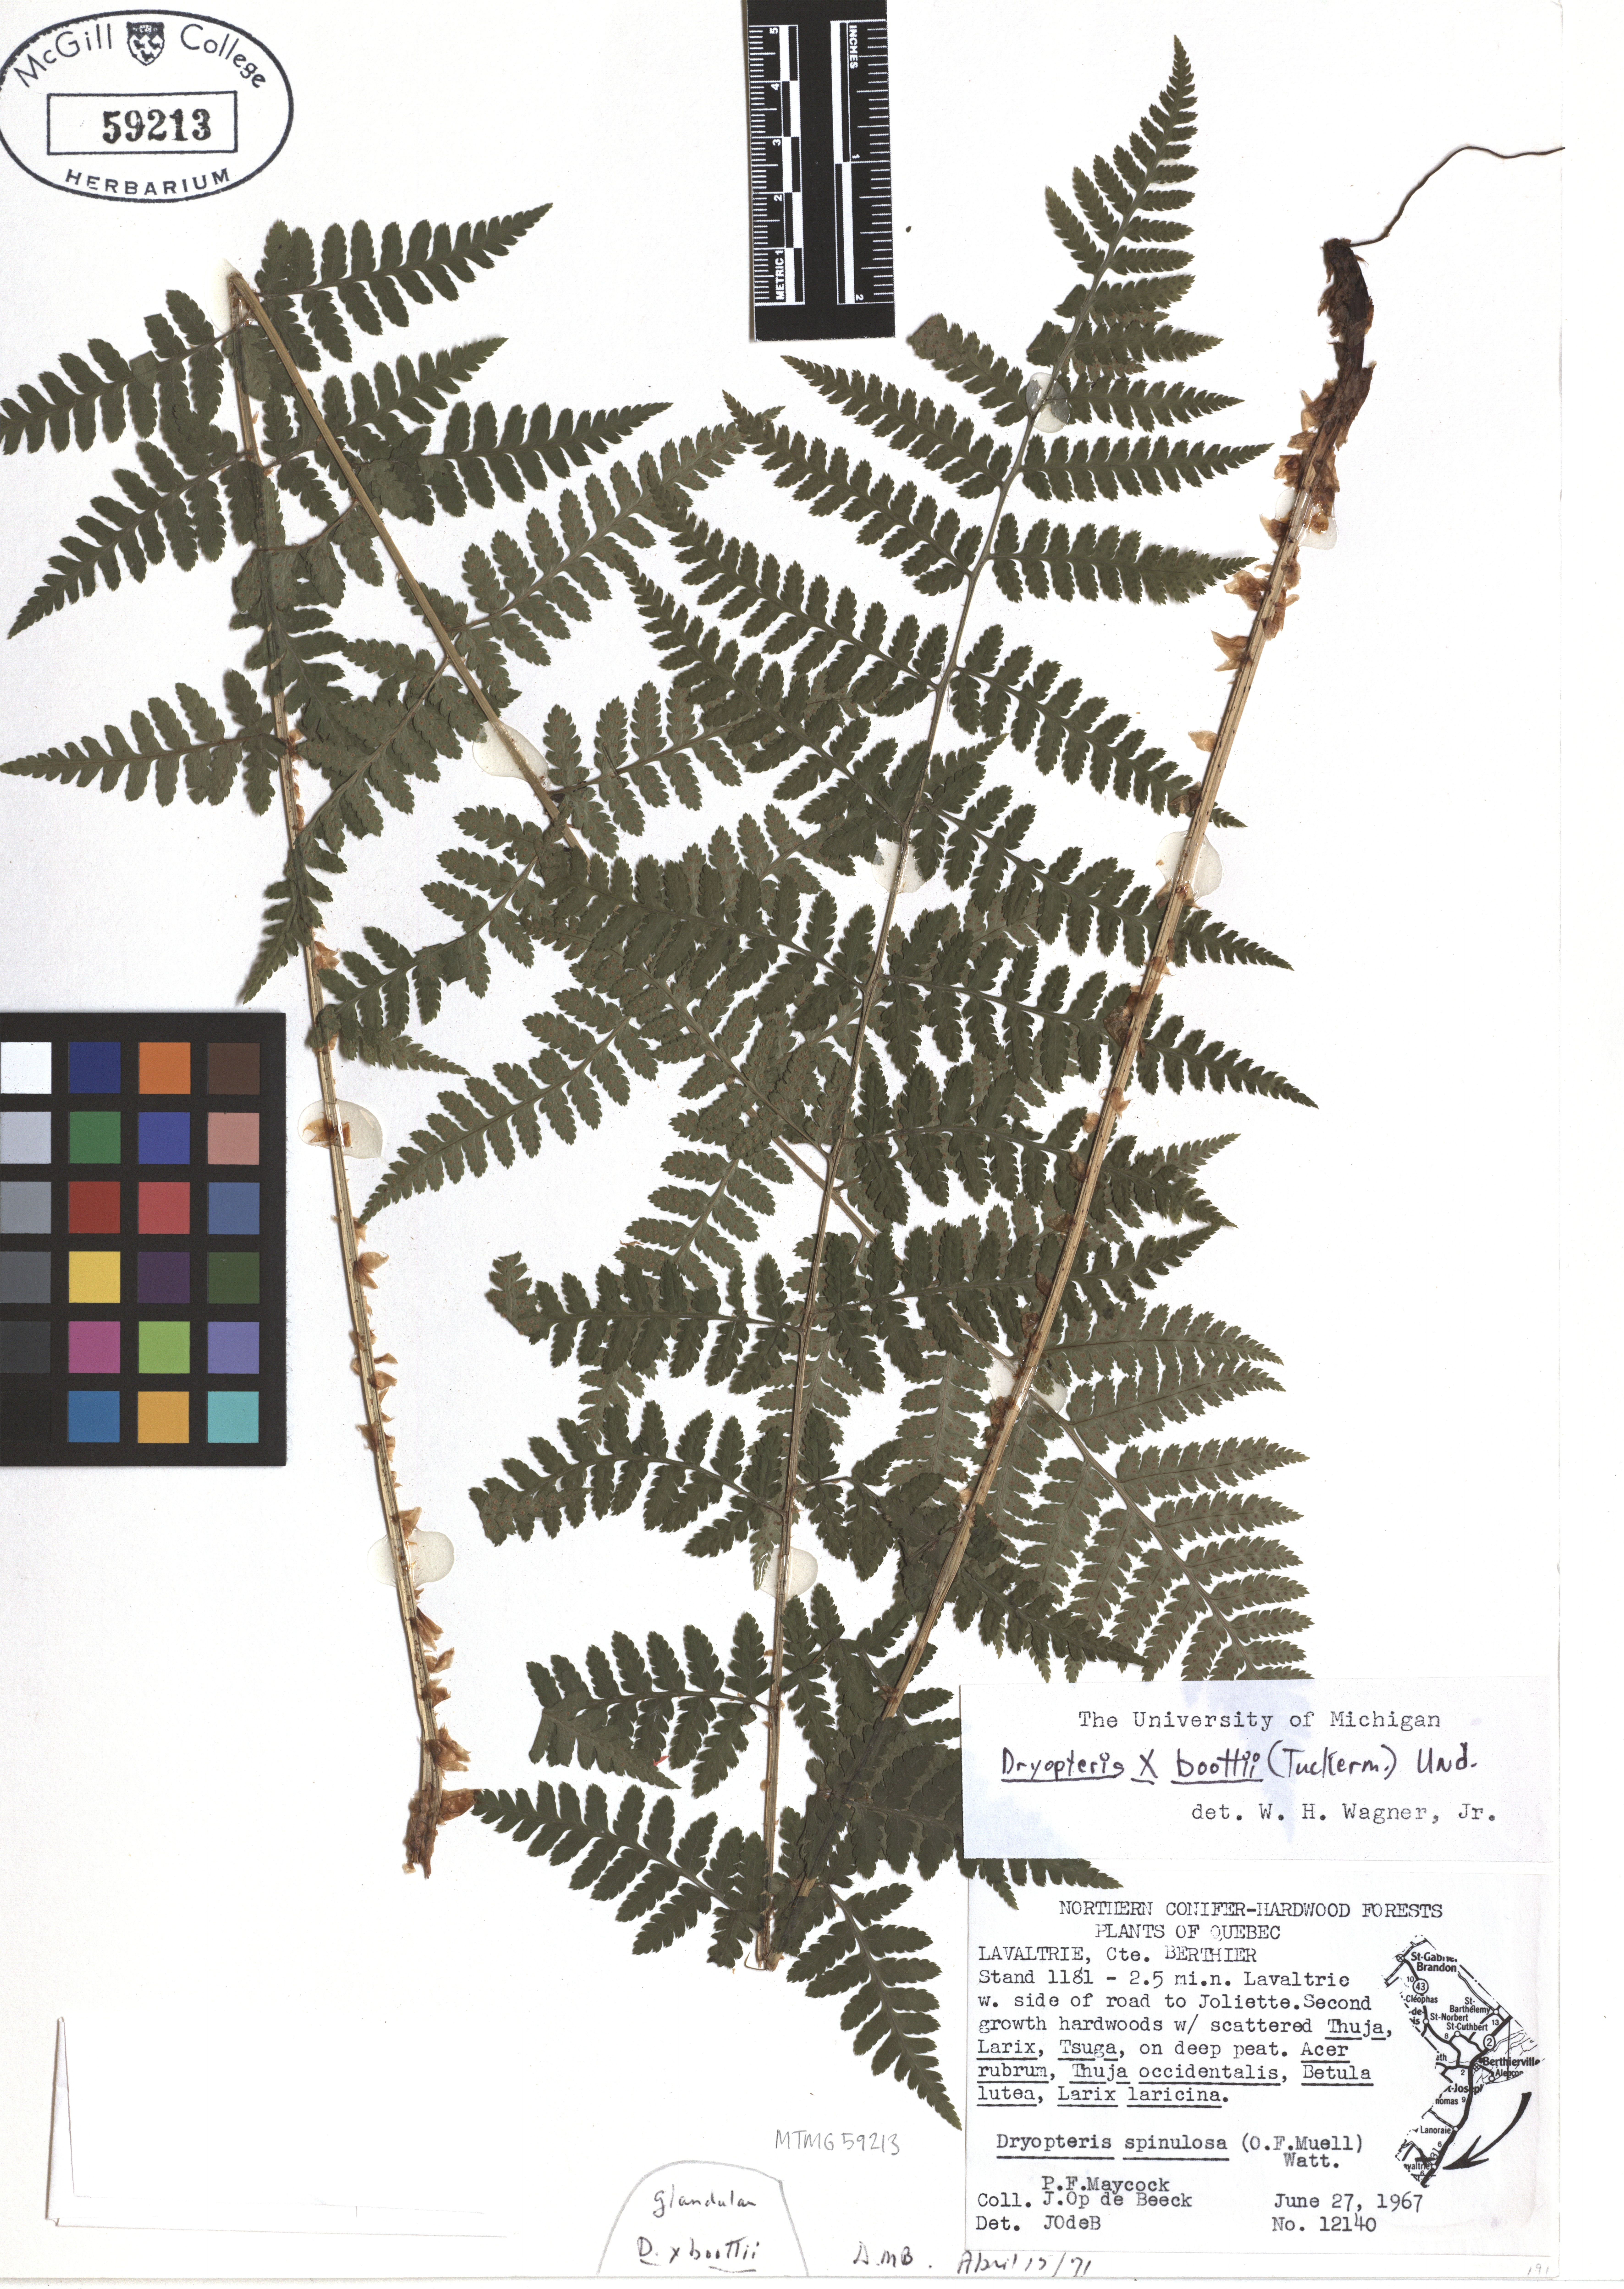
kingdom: Plantae
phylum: Tracheophyta
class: Polypodiopsida
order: Polypodiales
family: Dryopteridaceae
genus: Dryopteris
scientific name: Dryopteris boottii
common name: Boott's fern
